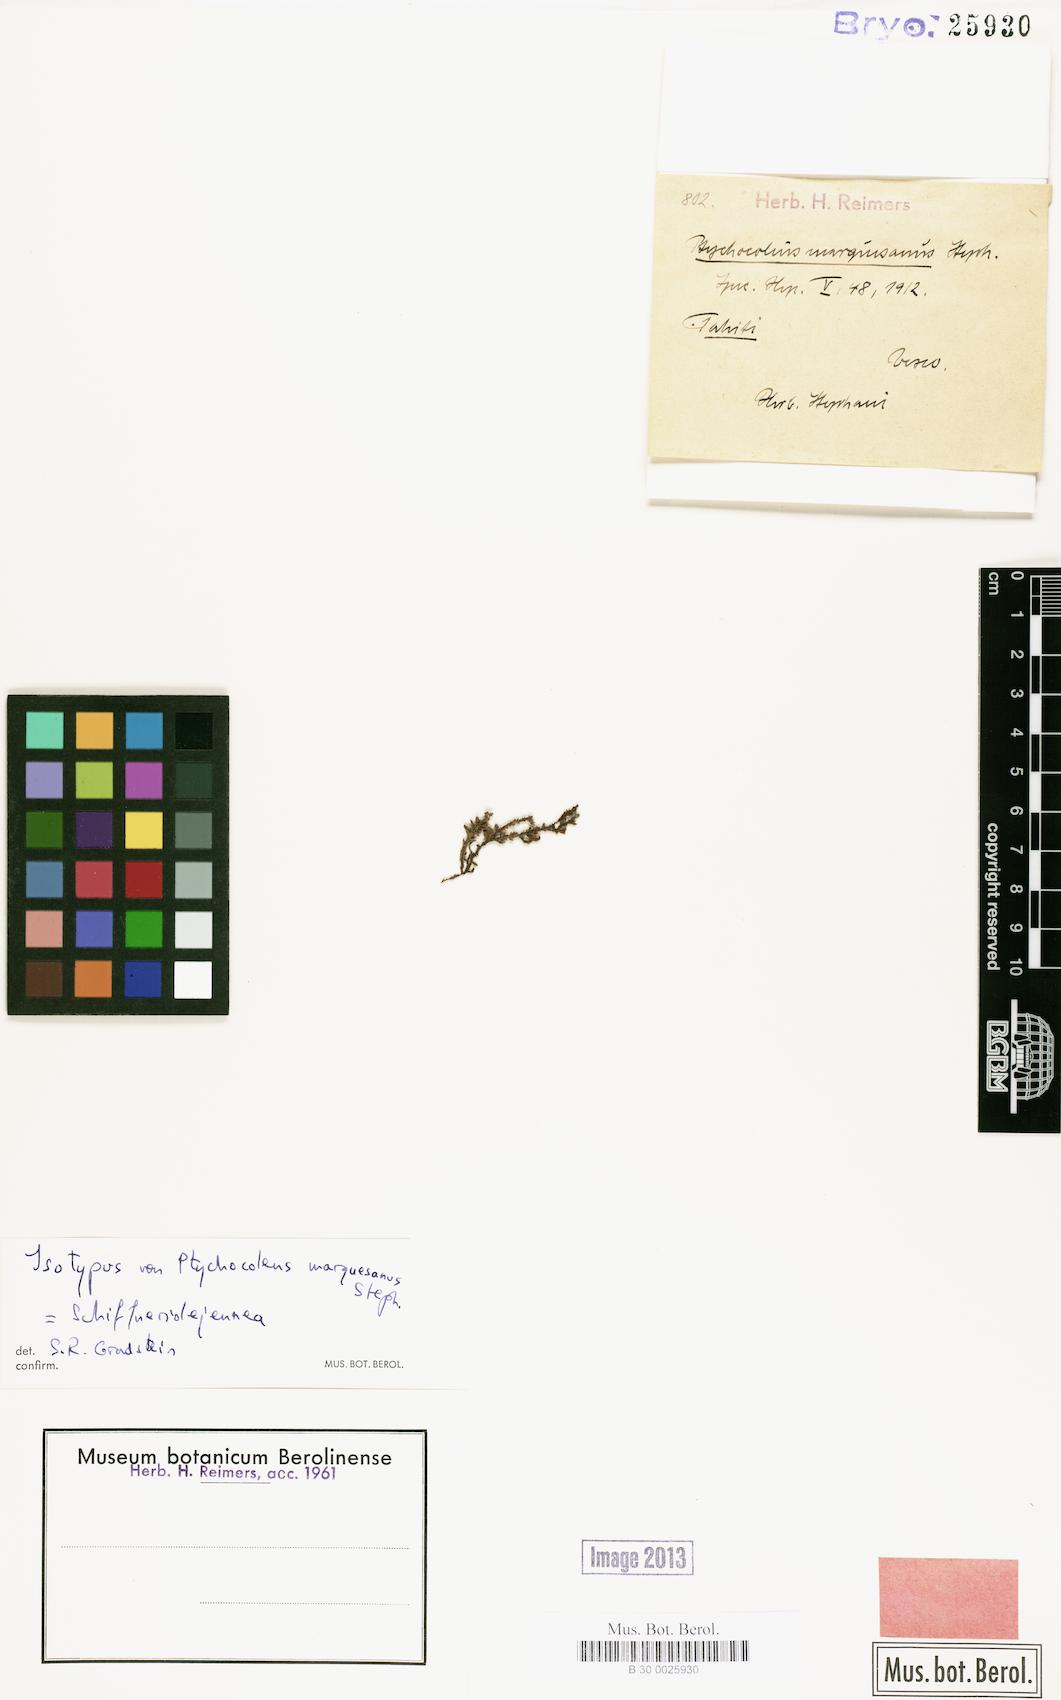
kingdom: Plantae
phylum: Marchantiophyta
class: Jungermanniopsida
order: Porellales
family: Lejeuneaceae
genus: Schiffneriolejeunea
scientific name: Schiffneriolejeunea
